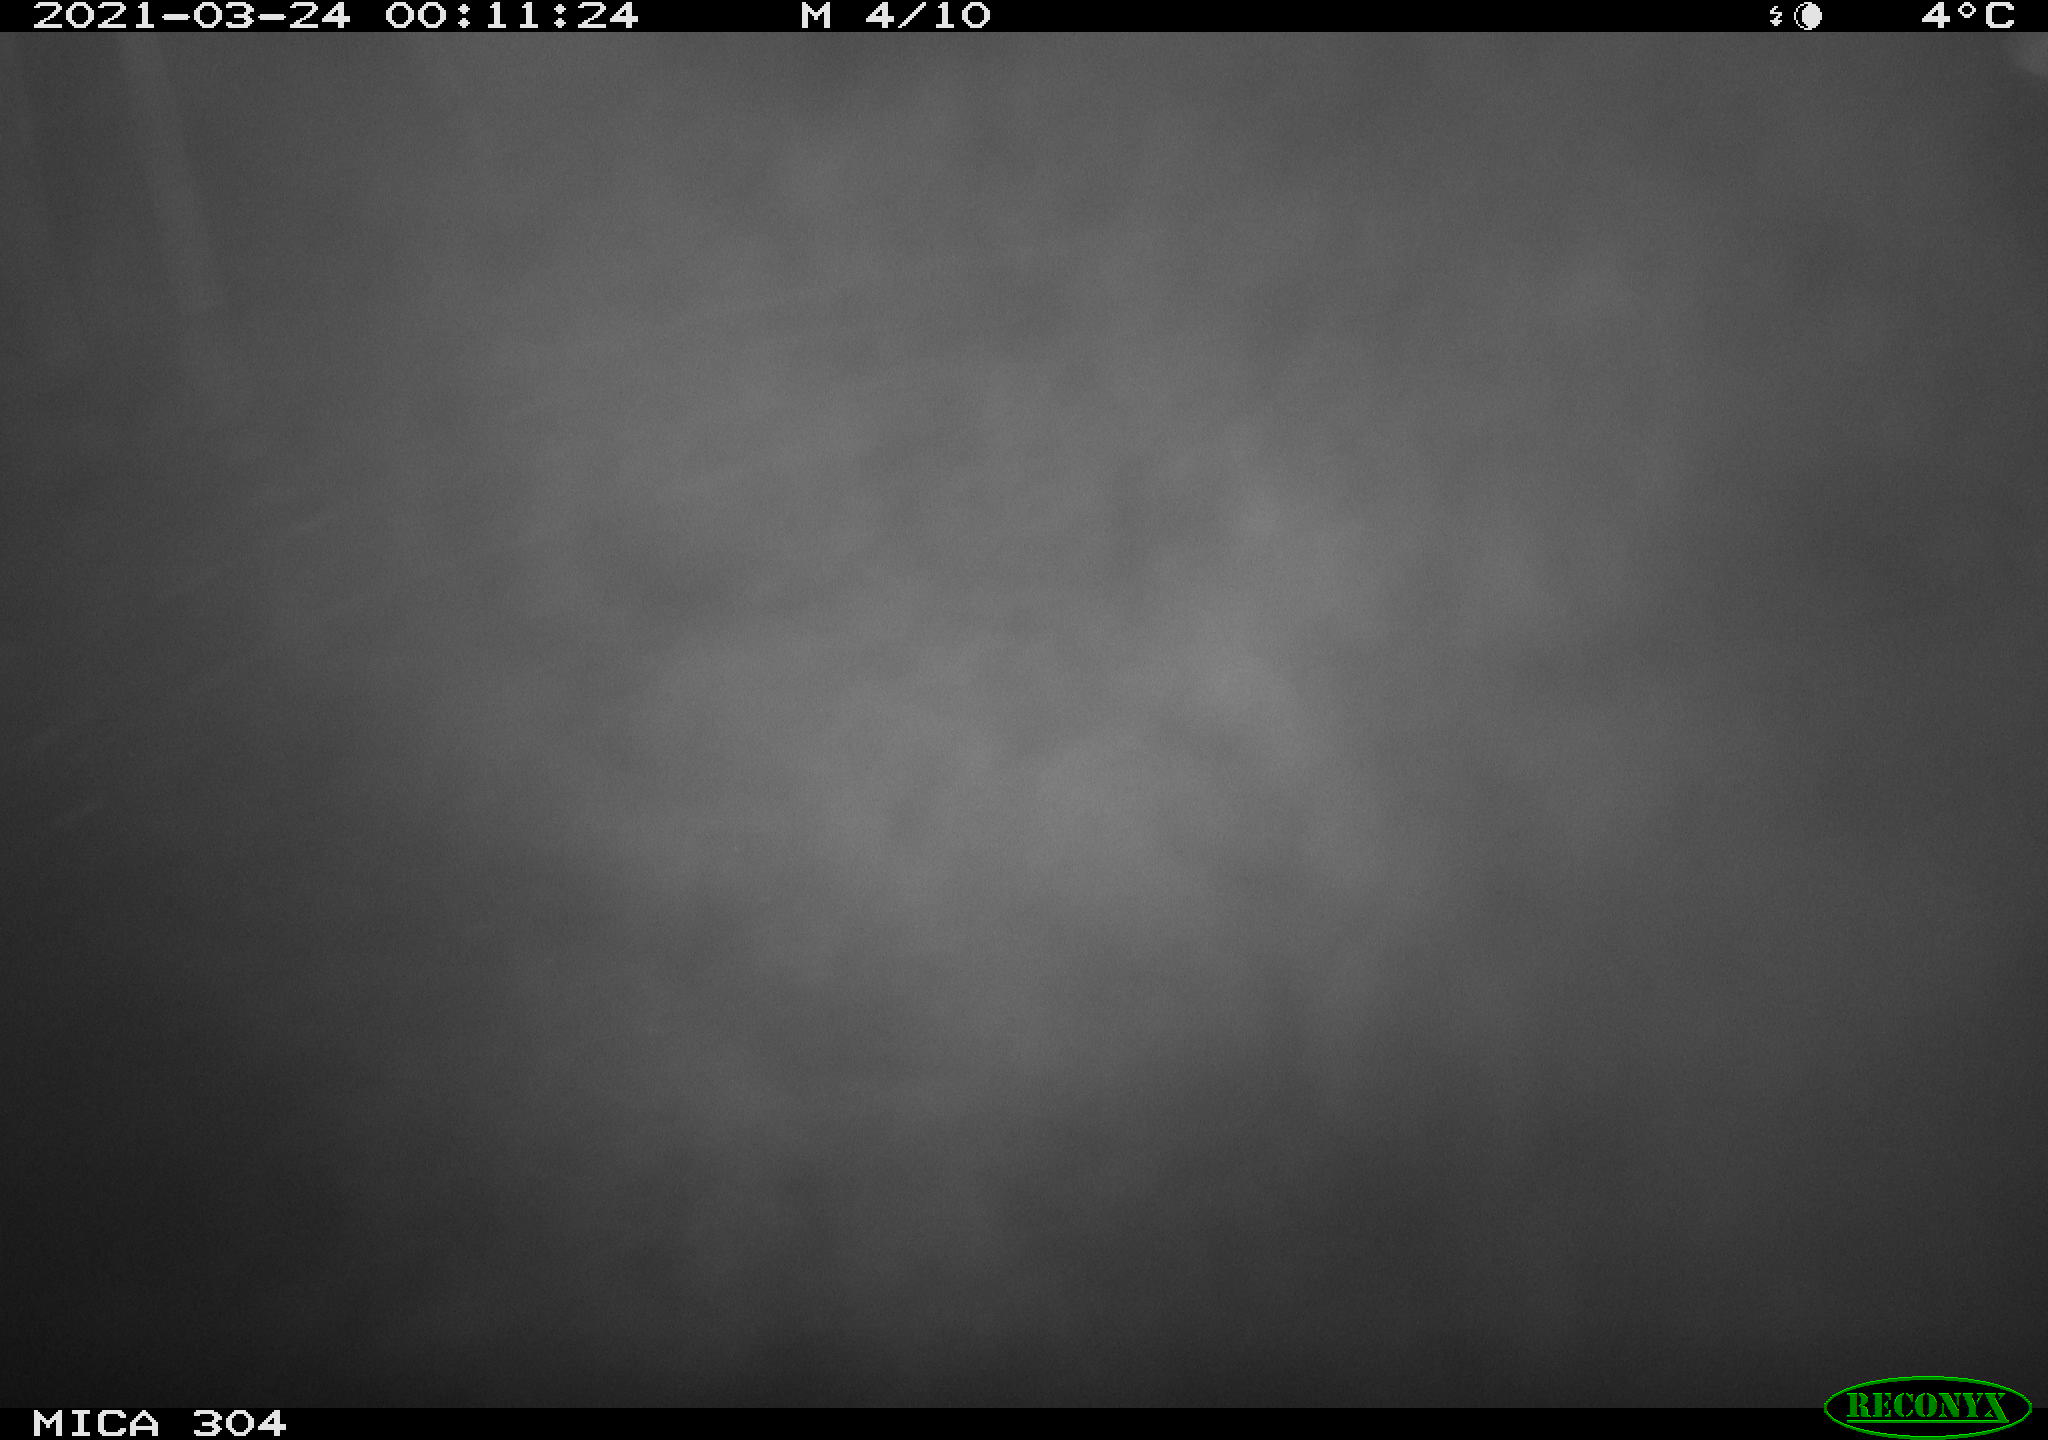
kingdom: Animalia
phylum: Chordata
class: Aves
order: Anseriformes
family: Anatidae
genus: Anas
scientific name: Anas platyrhynchos
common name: Mallard
